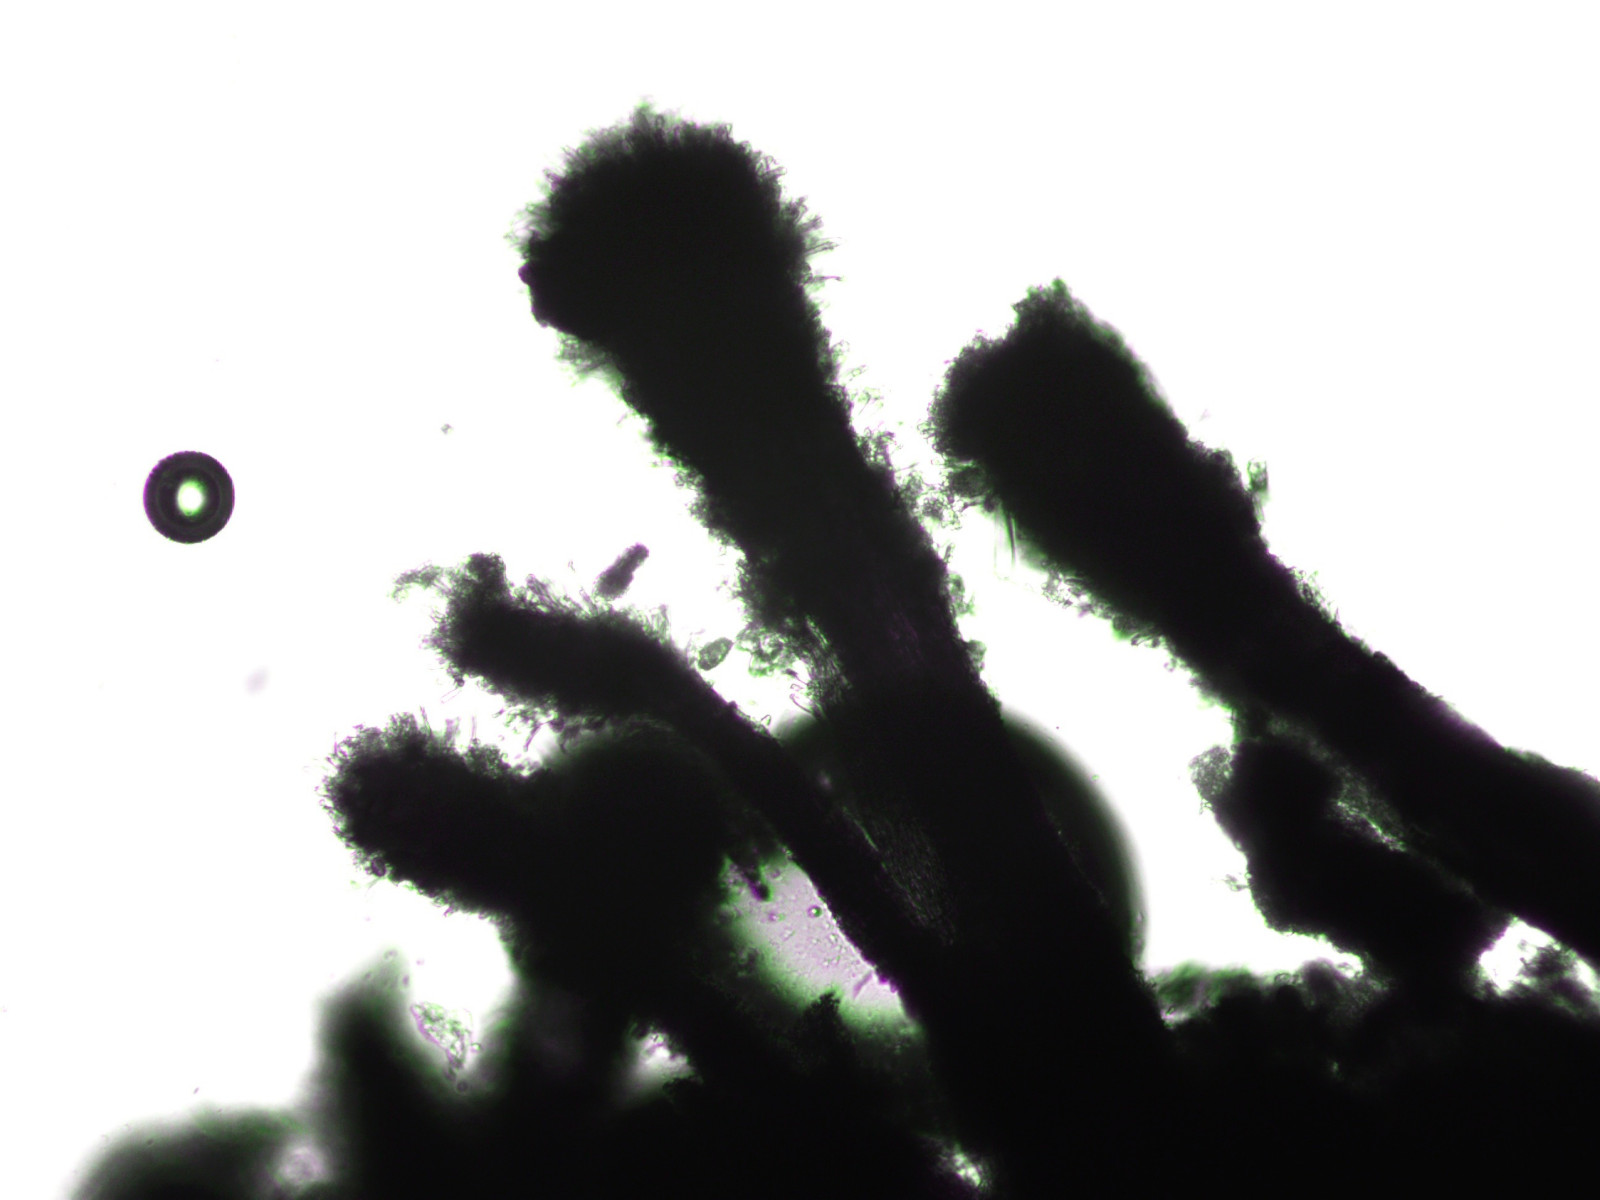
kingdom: Fungi
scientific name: Fungi
